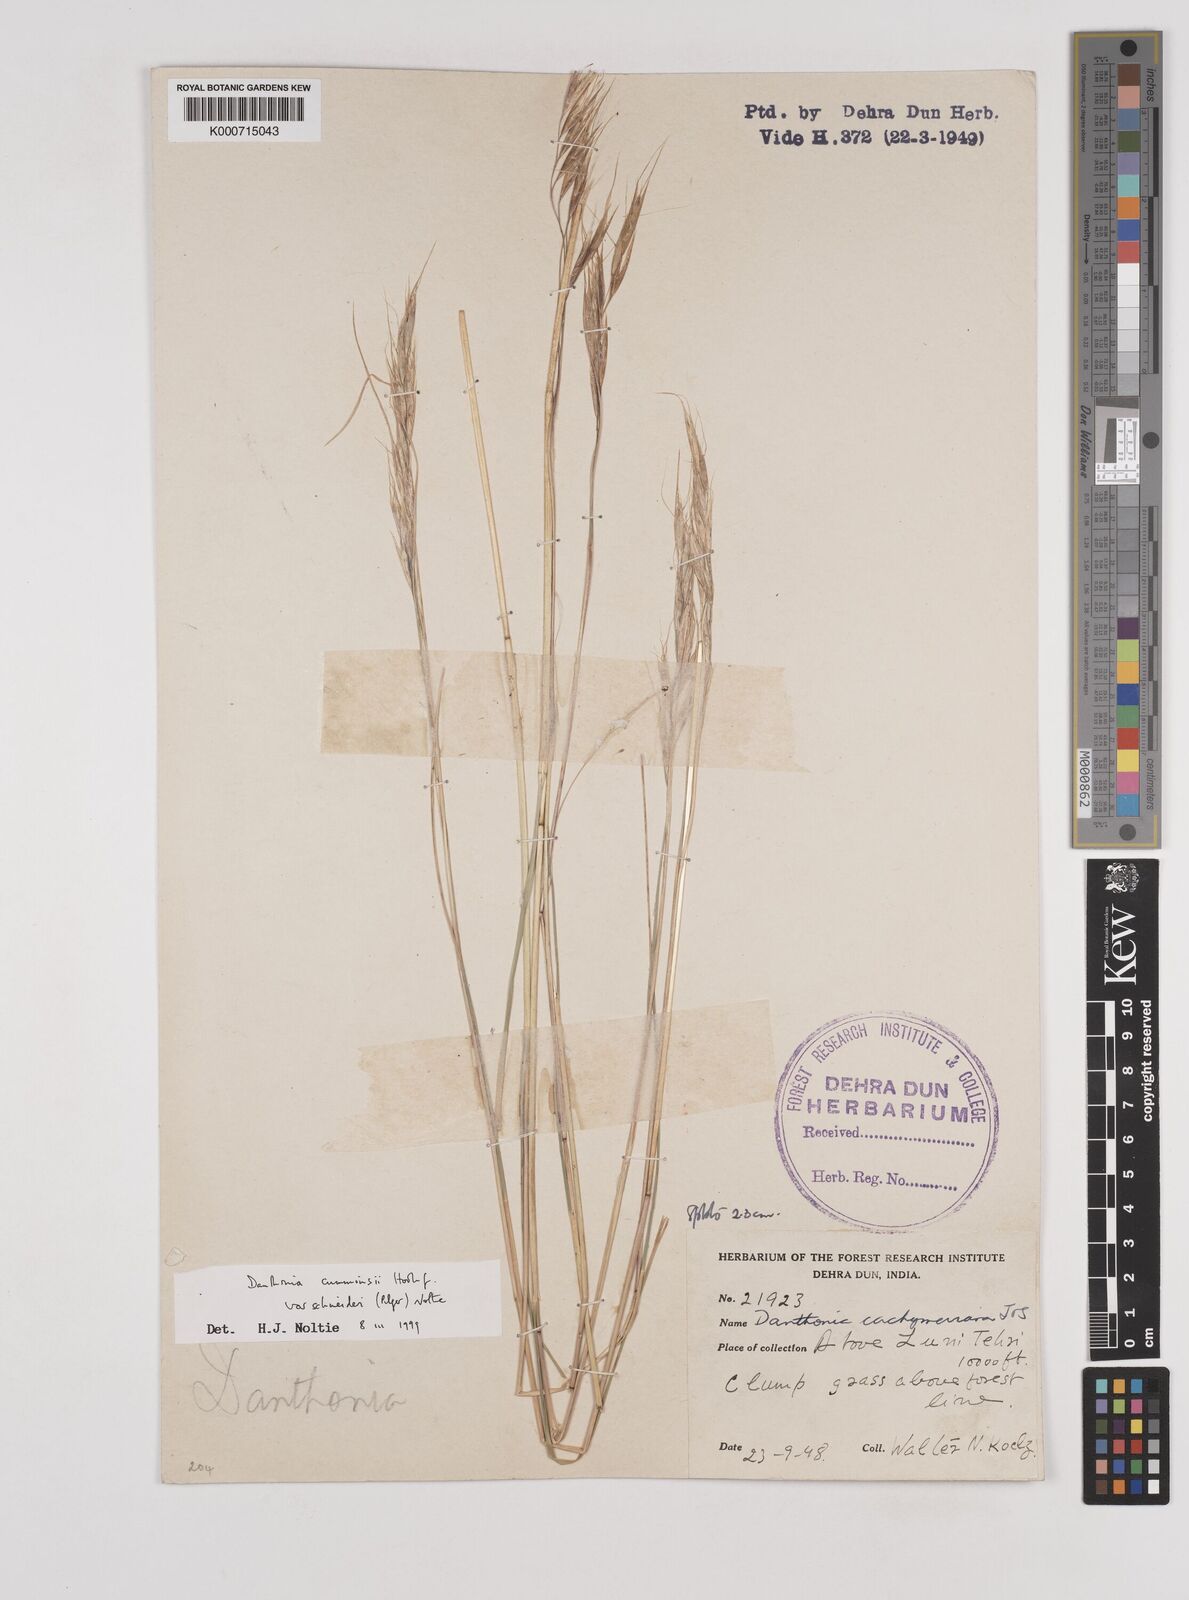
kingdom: Plantae
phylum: Tracheophyta
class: Liliopsida
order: Poales
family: Poaceae
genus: Rytidosperma
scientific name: Rytidosperma
